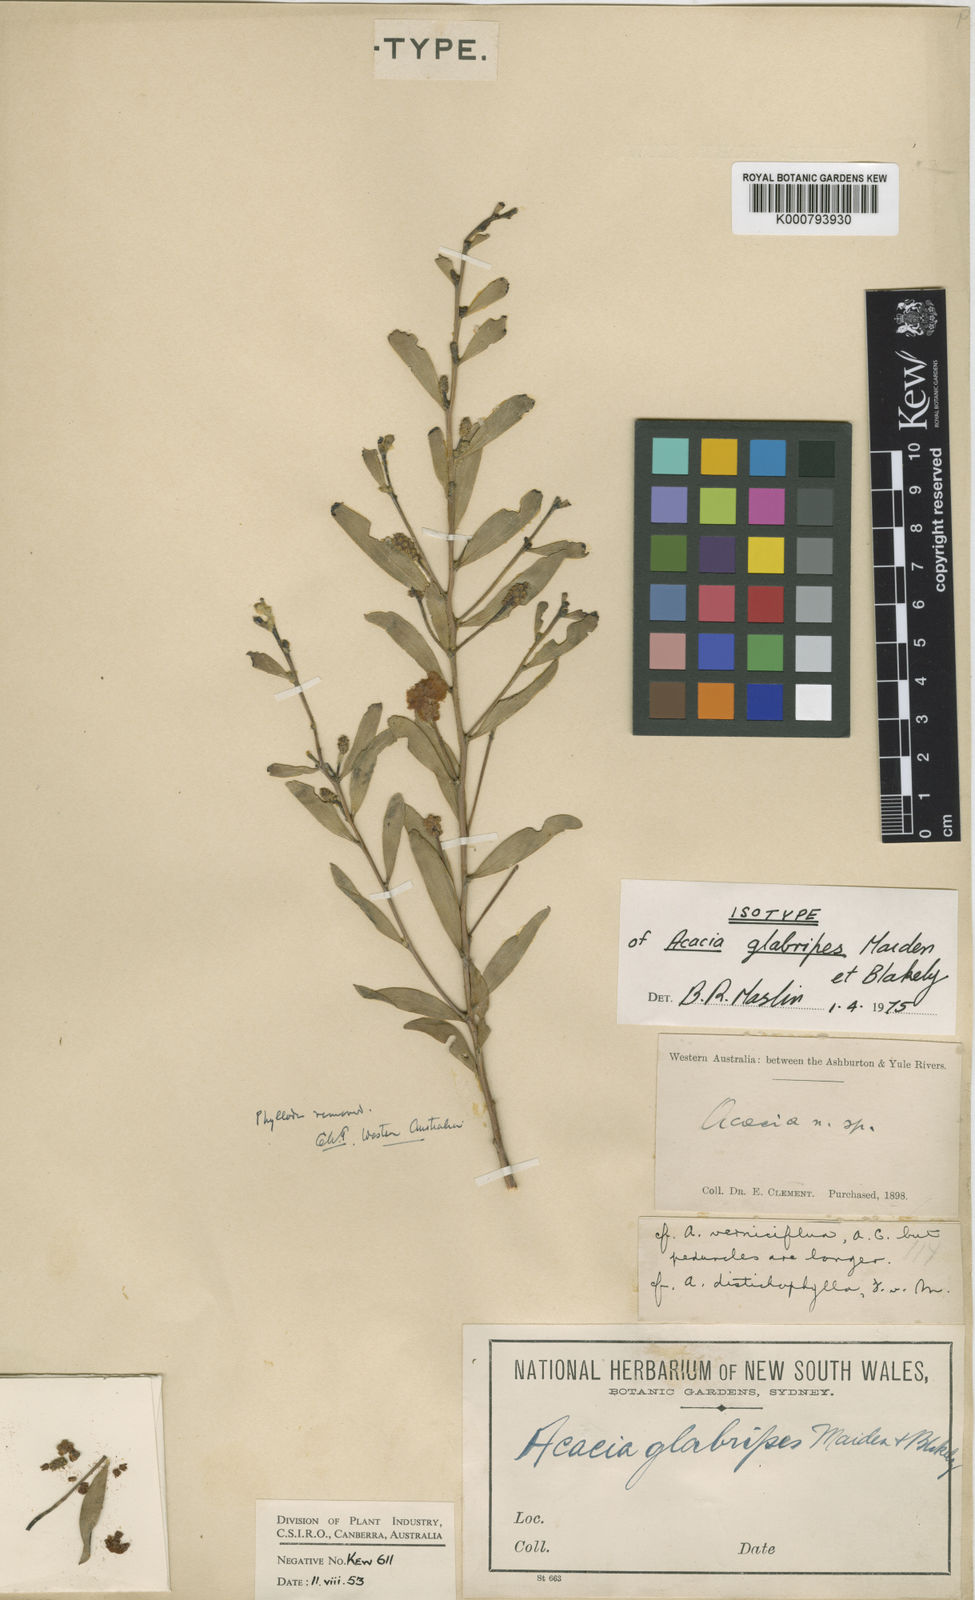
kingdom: Plantae
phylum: Tracheophyta
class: Magnoliopsida
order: Fabales
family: Fabaceae
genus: Acacia
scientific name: Acacia sphaerostachya
